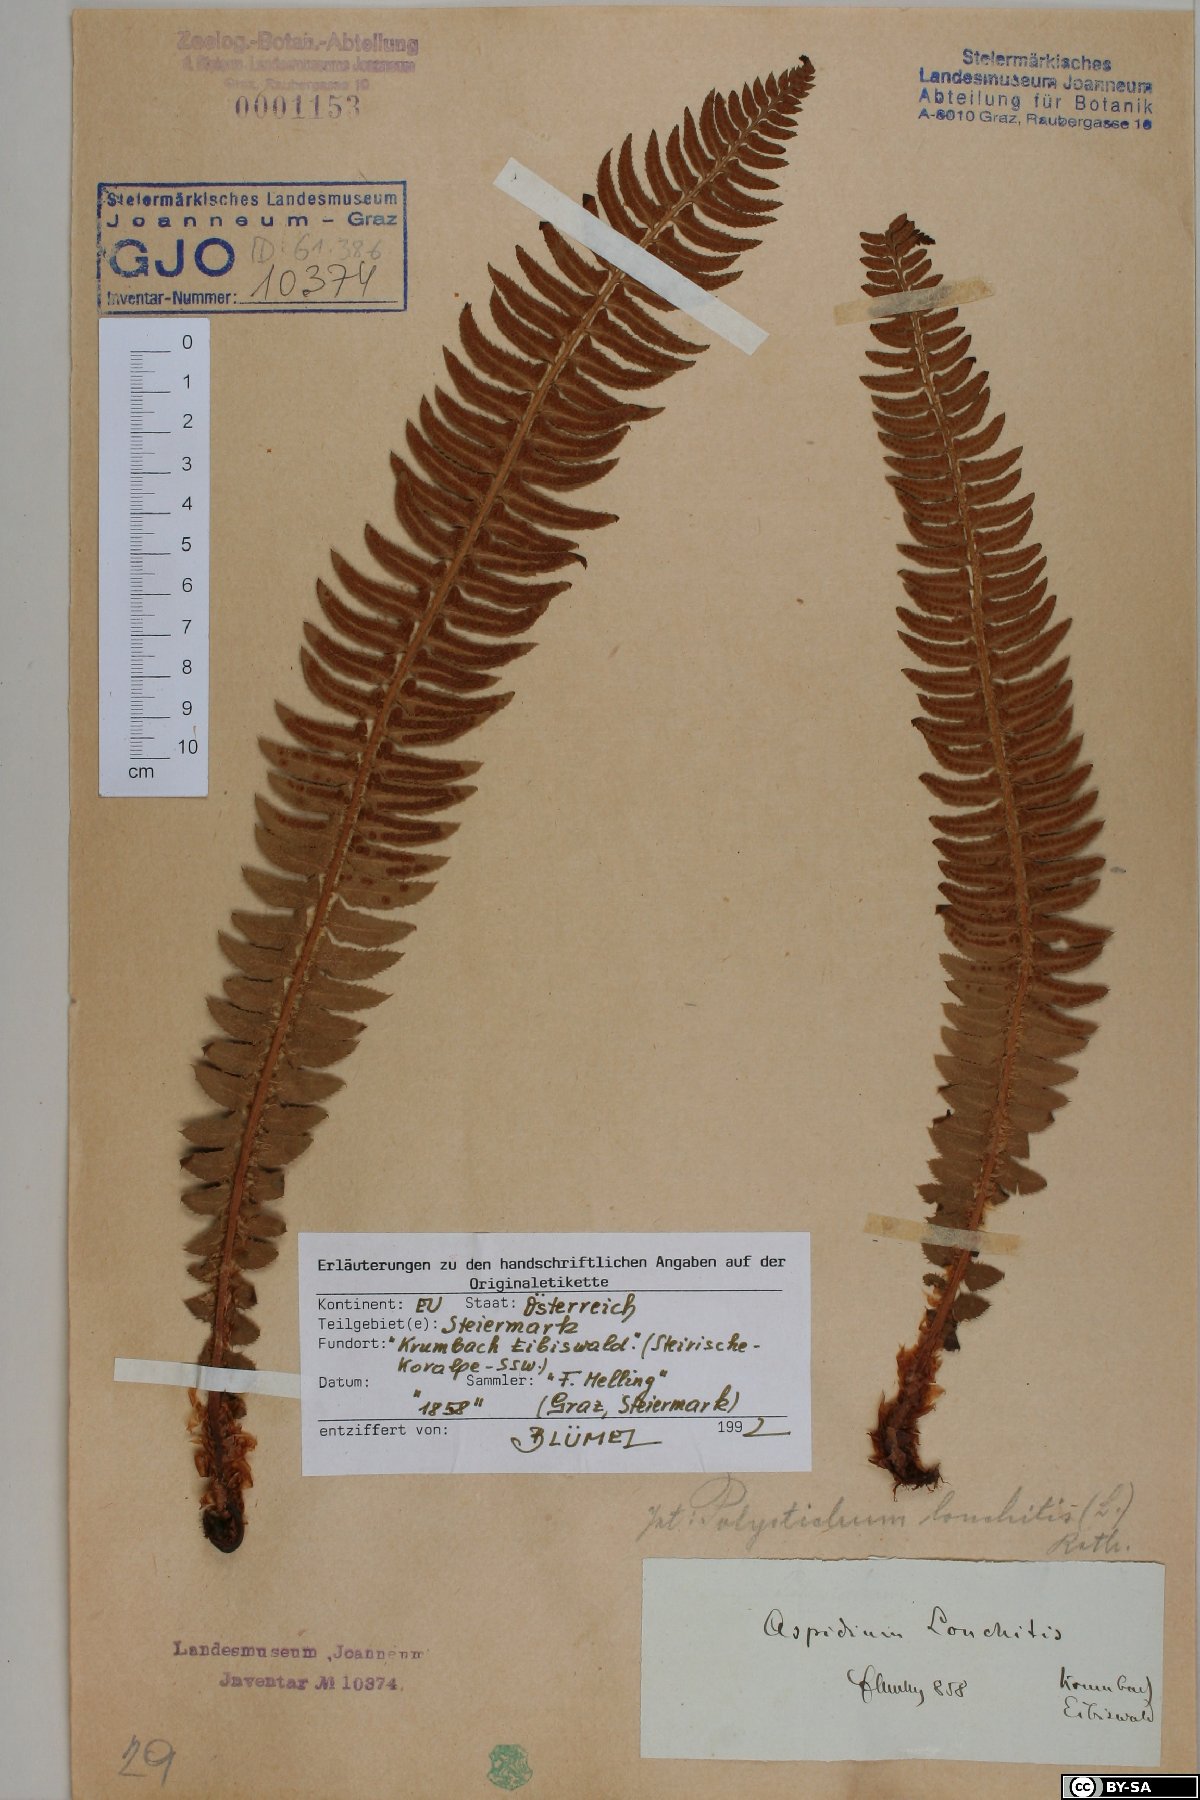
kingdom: Plantae
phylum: Tracheophyta
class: Polypodiopsida
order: Polypodiales
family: Dryopteridaceae
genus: Polystichum
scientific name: Polystichum lonchitis
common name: Holly fern
